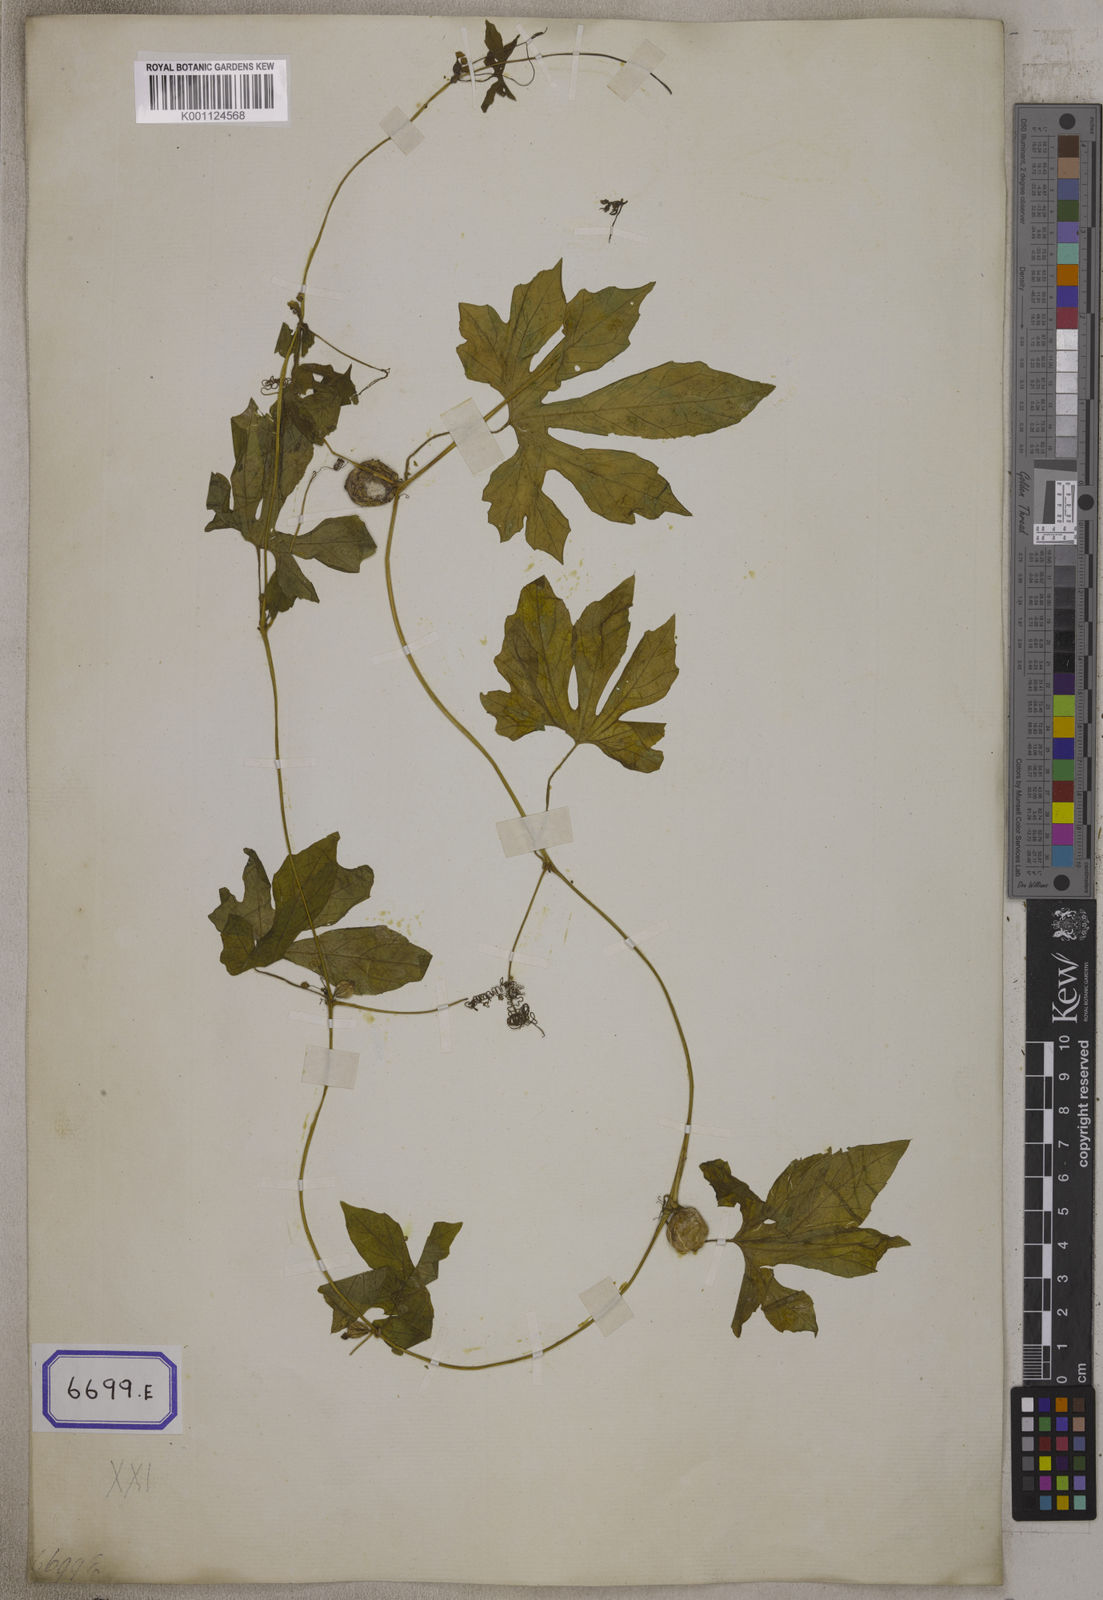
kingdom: Plantae
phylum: Tracheophyta
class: Magnoliopsida
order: Cucurbitales
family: Cucurbitaceae
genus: Diplocyclos
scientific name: Diplocyclos palmatus
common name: Striped-cucumber
